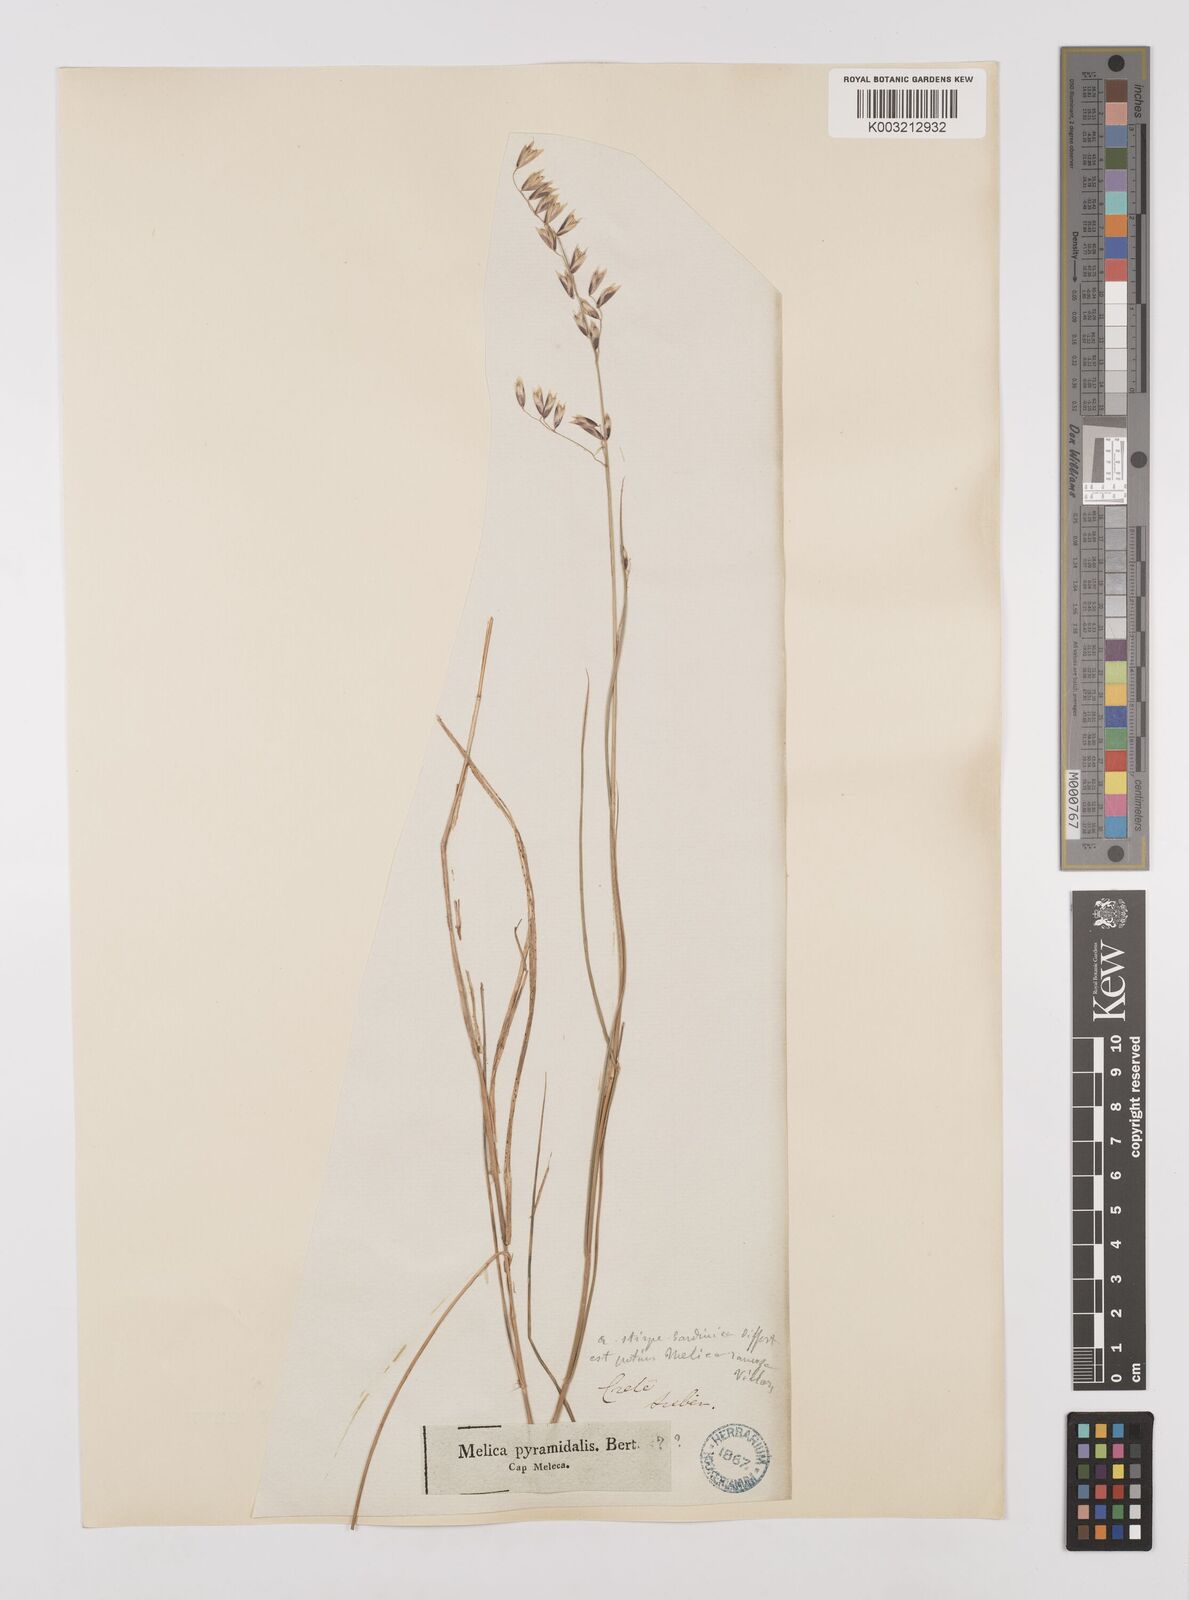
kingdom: Plantae
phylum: Tracheophyta
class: Liliopsida
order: Poales
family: Poaceae
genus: Melica
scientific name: Melica minuta
